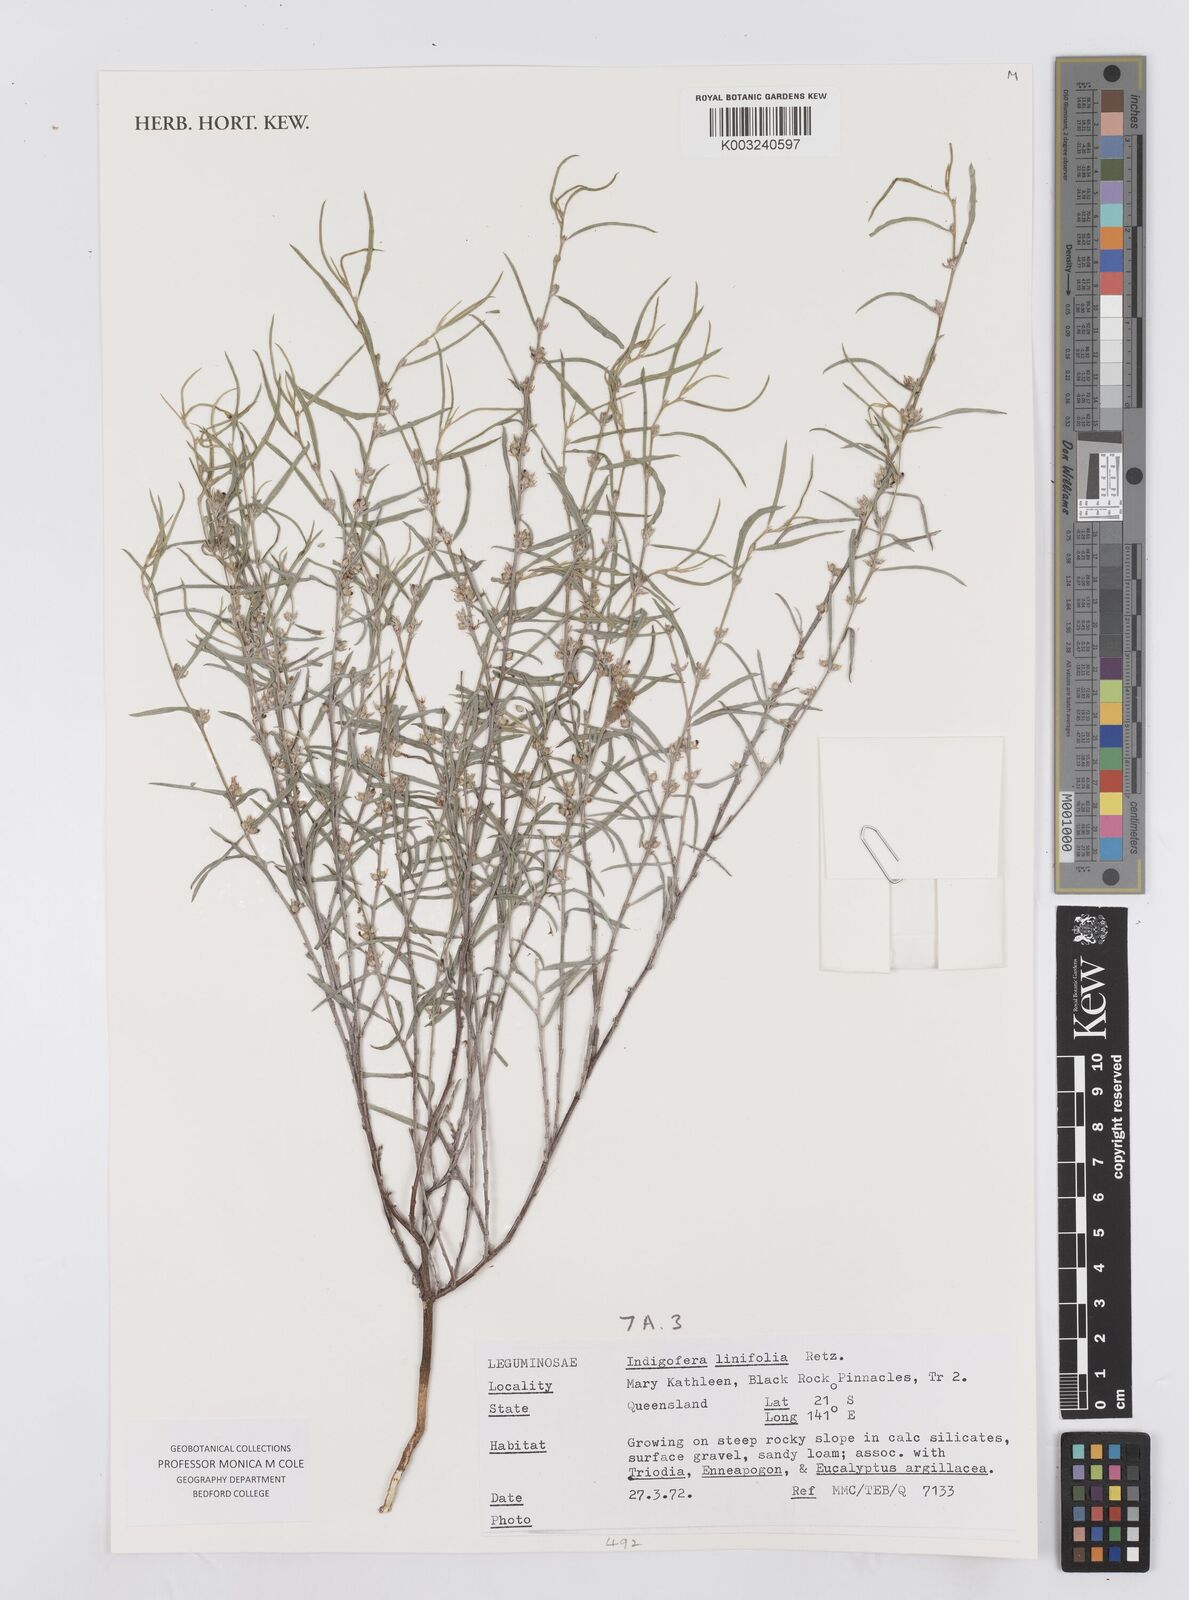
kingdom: Plantae
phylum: Tracheophyta
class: Magnoliopsida
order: Fabales
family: Fabaceae
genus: Indigofera
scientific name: Indigofera linifolia
